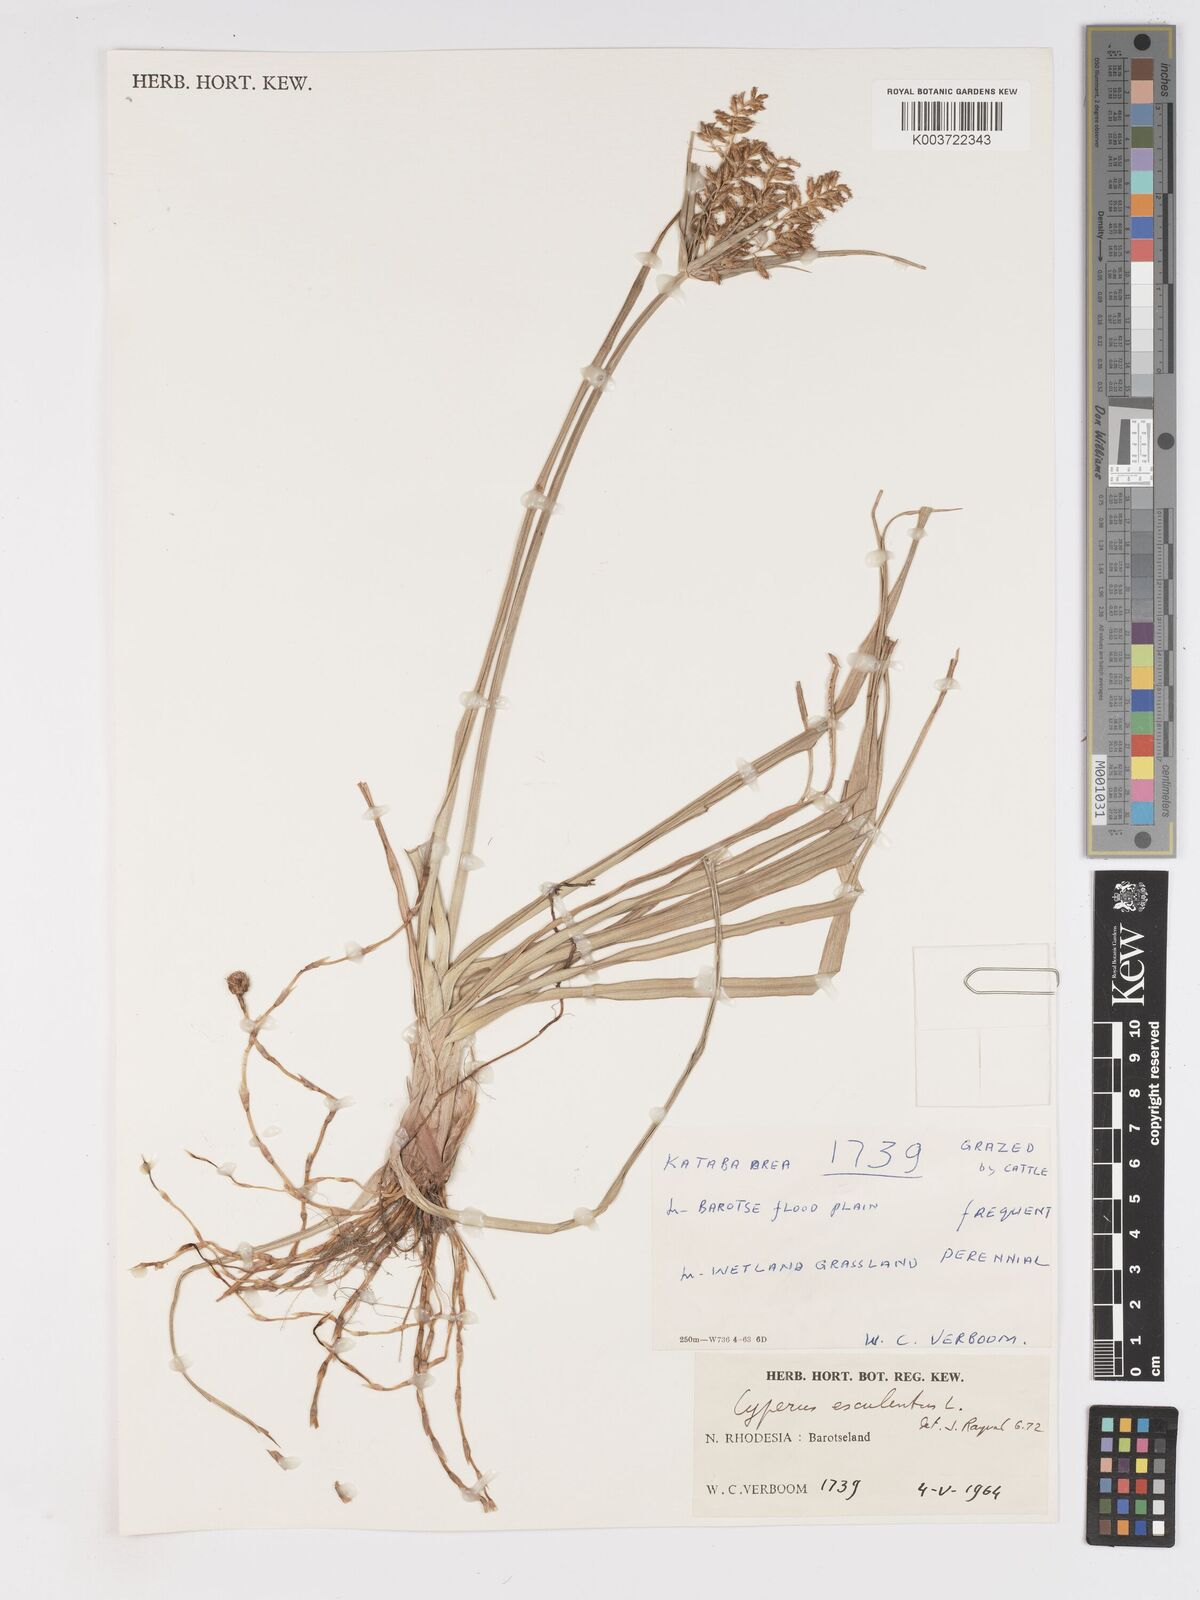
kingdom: Plantae
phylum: Tracheophyta
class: Liliopsida
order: Poales
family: Cyperaceae
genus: Cyperus
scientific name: Cyperus esculentus
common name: Yellow nutsedge
